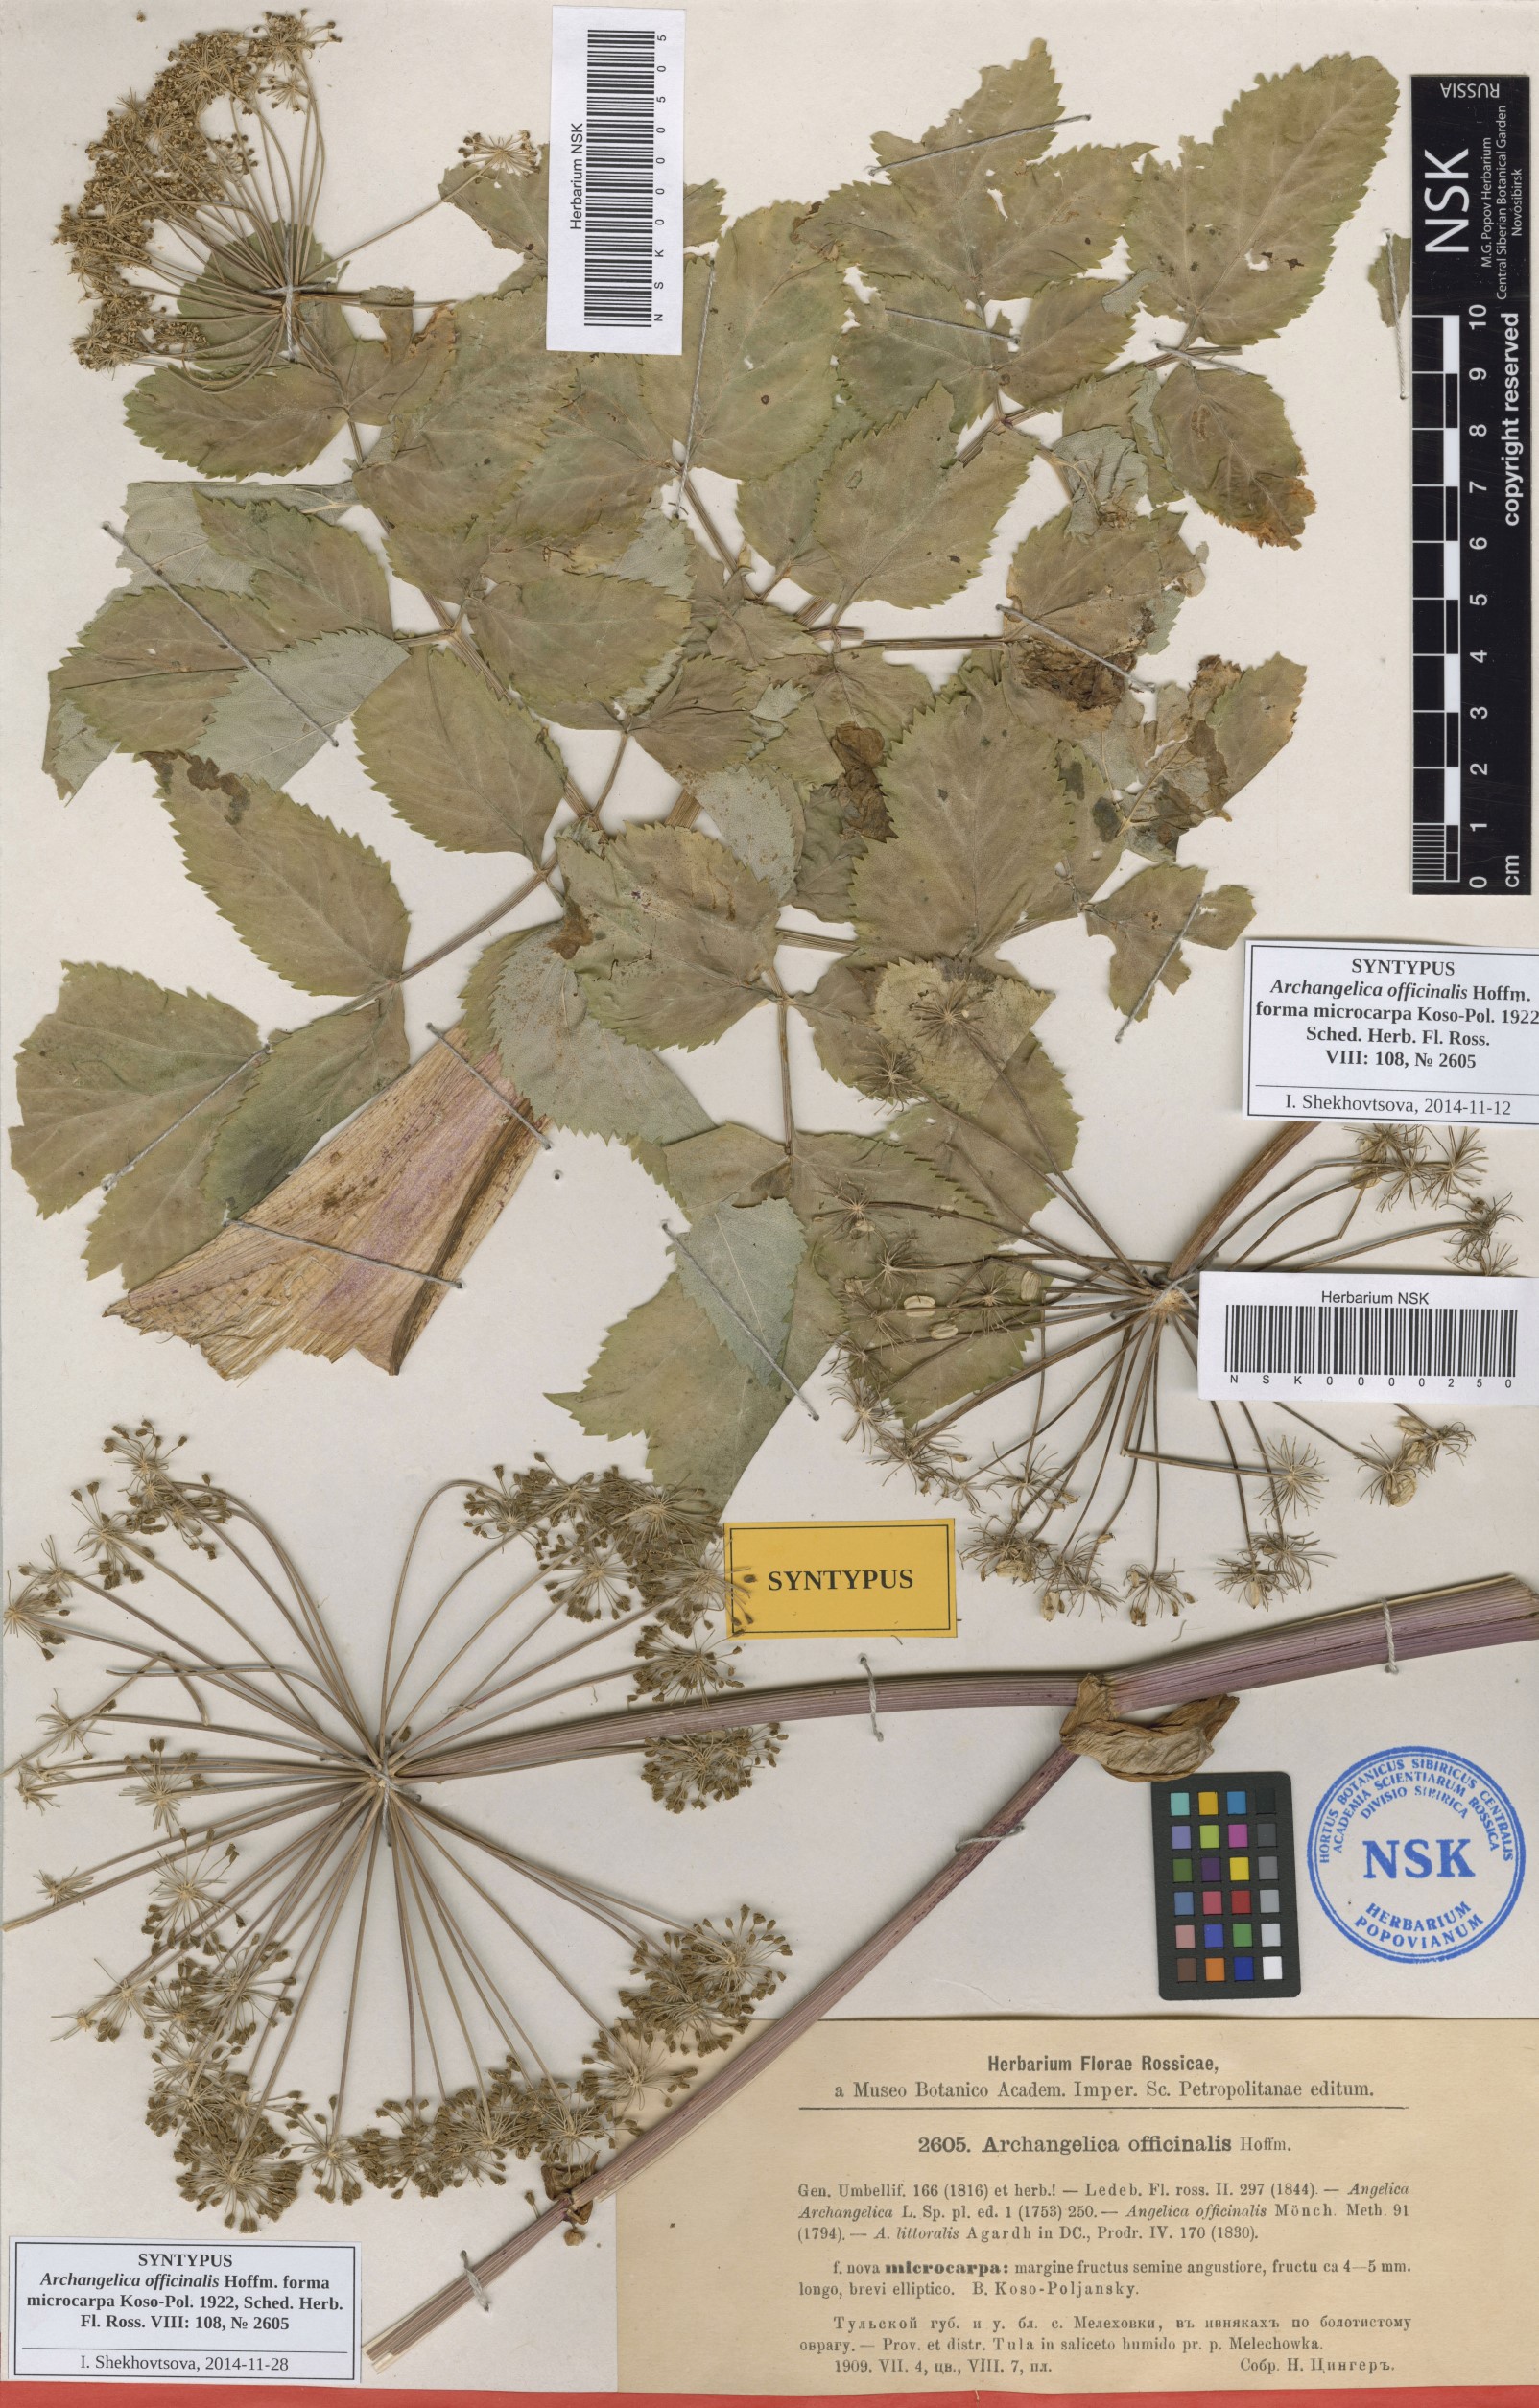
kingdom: Plantae
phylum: Tracheophyta
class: Magnoliopsida
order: Apiales
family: Apiaceae
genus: Angelica
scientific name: Angelica archangelica
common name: Garden angelica
